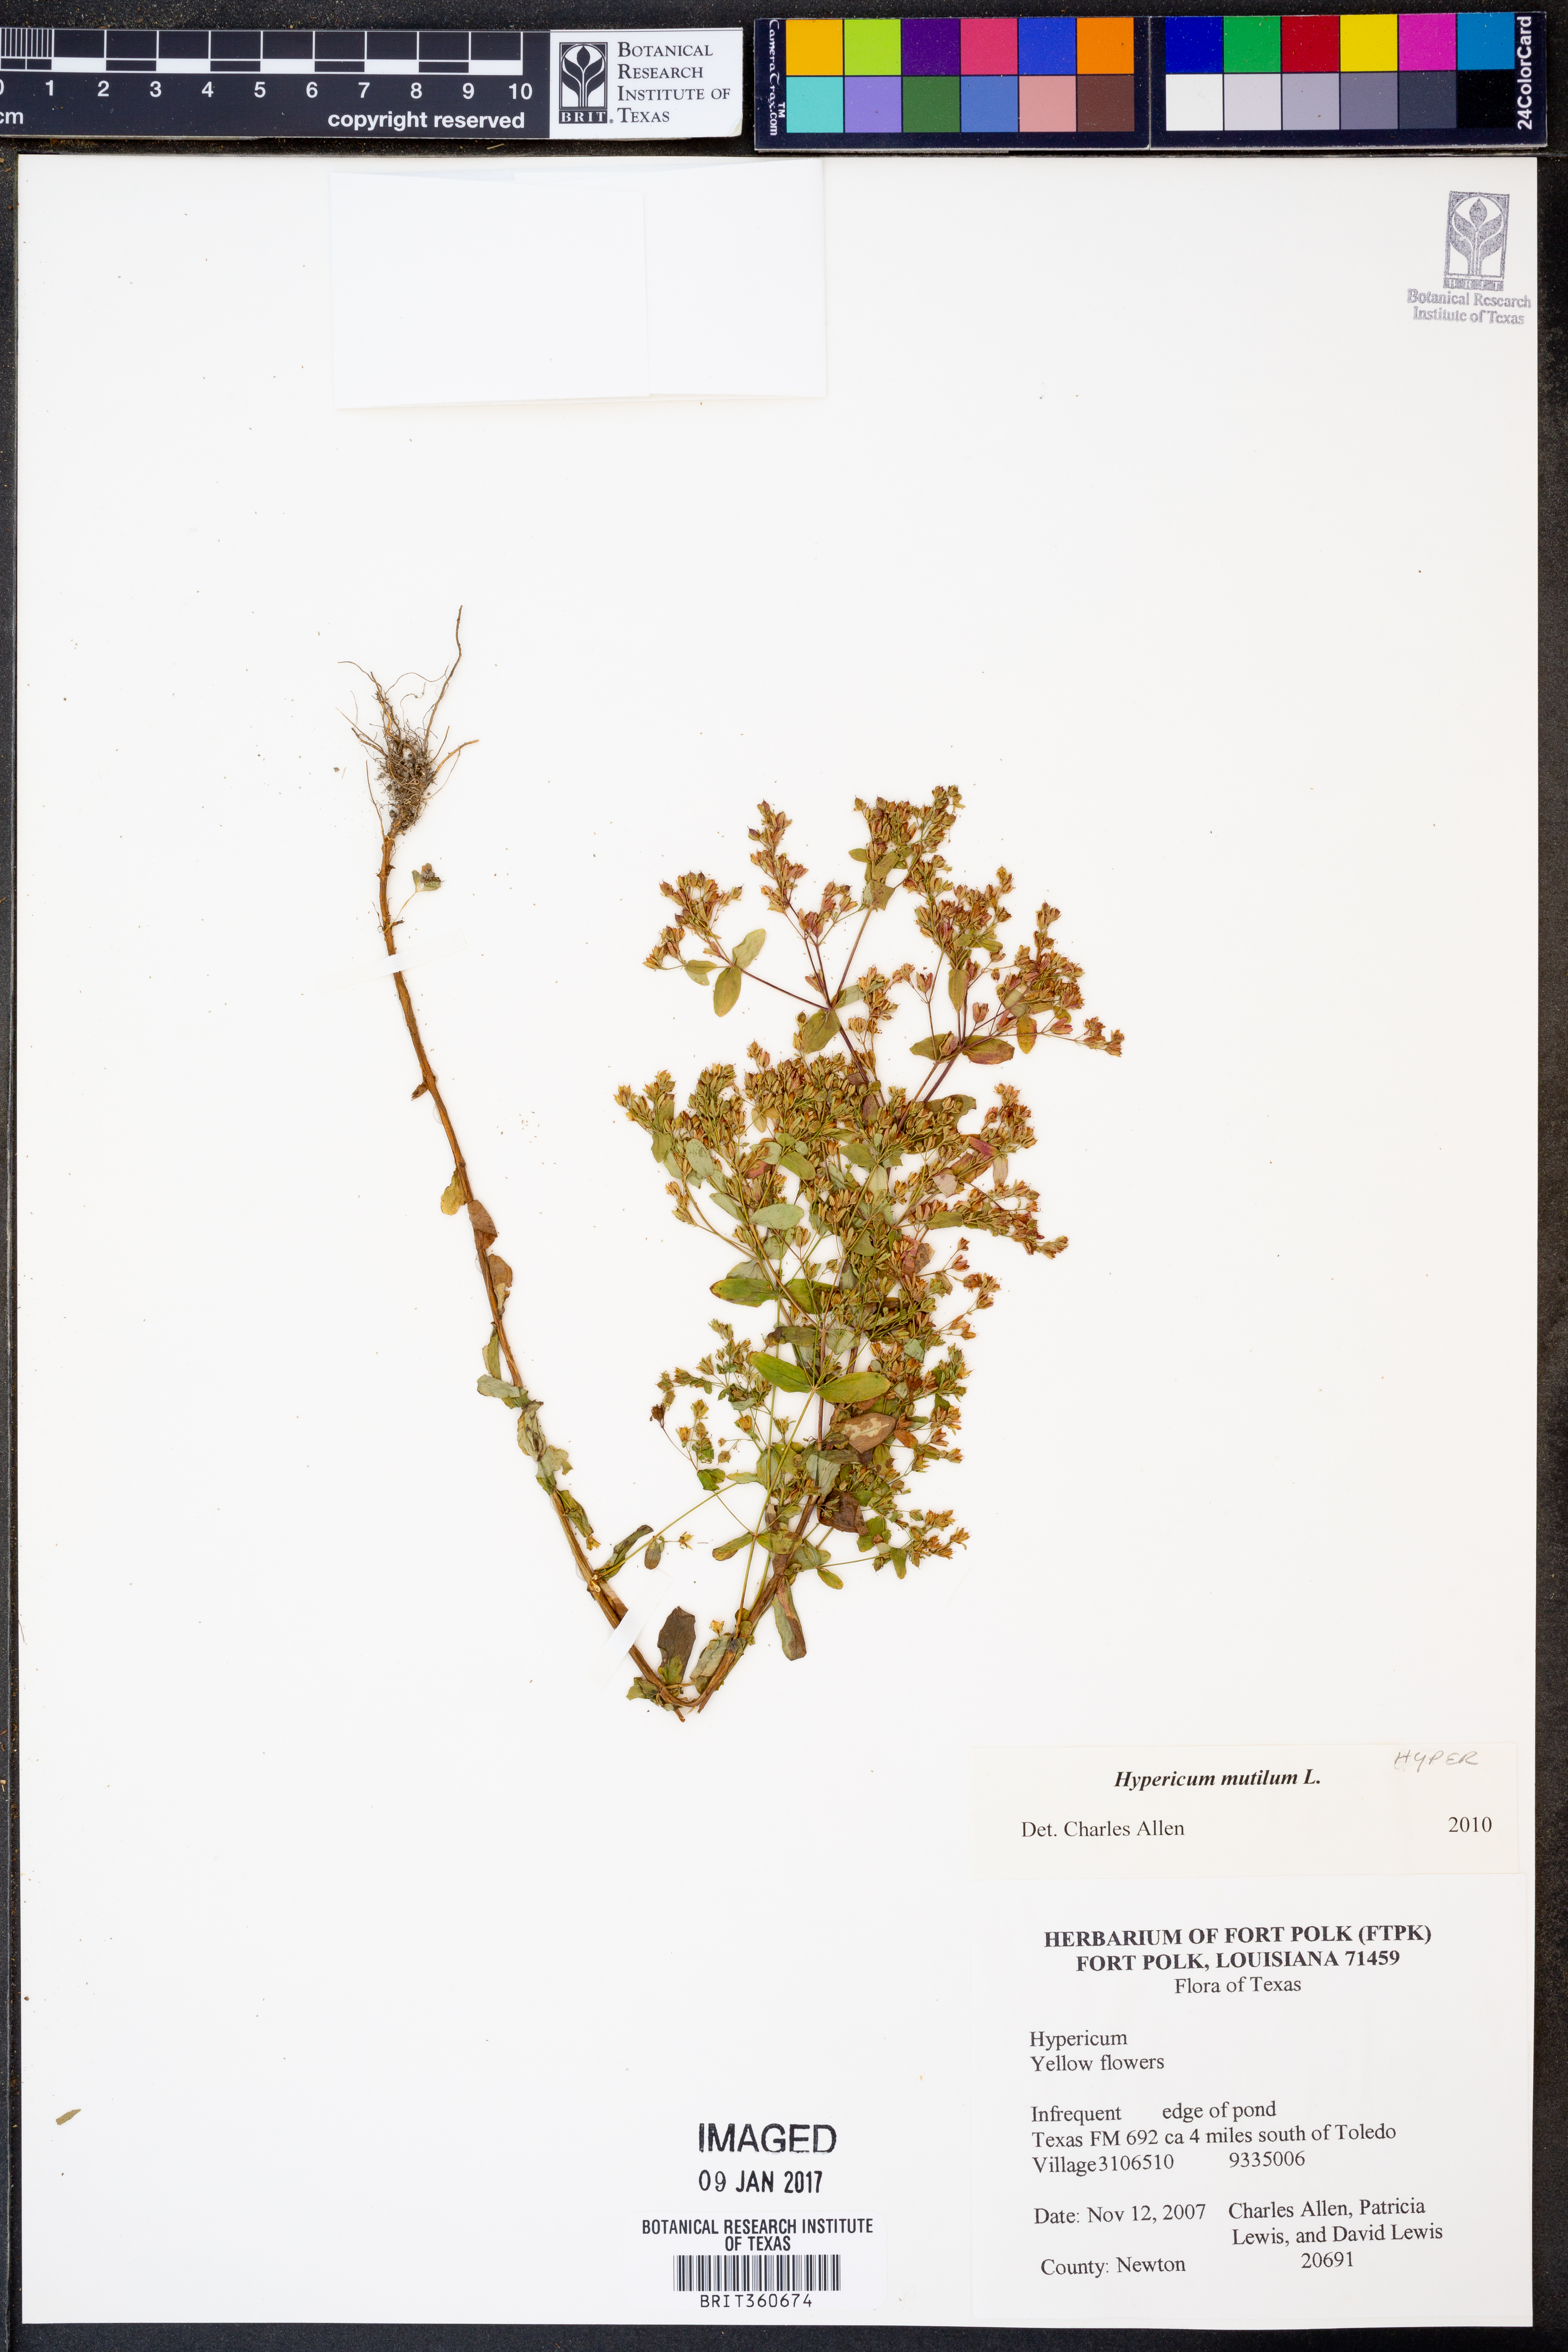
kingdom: Plantae
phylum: Tracheophyta
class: Magnoliopsida
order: Malpighiales
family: Hypericaceae
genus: Hypericum
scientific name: Hypericum mutilum
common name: Dwarf st. john's-wort
